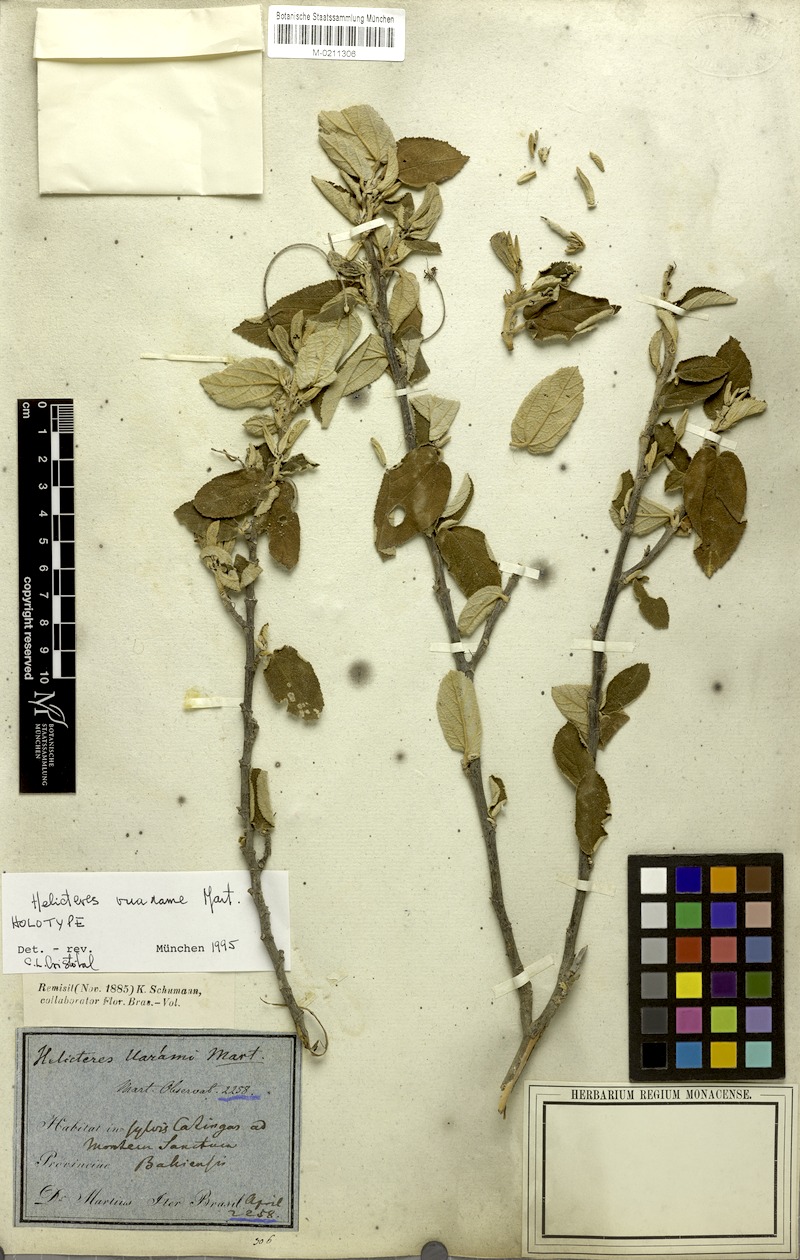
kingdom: Plantae
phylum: Tracheophyta
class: Magnoliopsida
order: Malvales
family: Malvaceae
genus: Helicteres
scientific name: Helicteres vuarame
